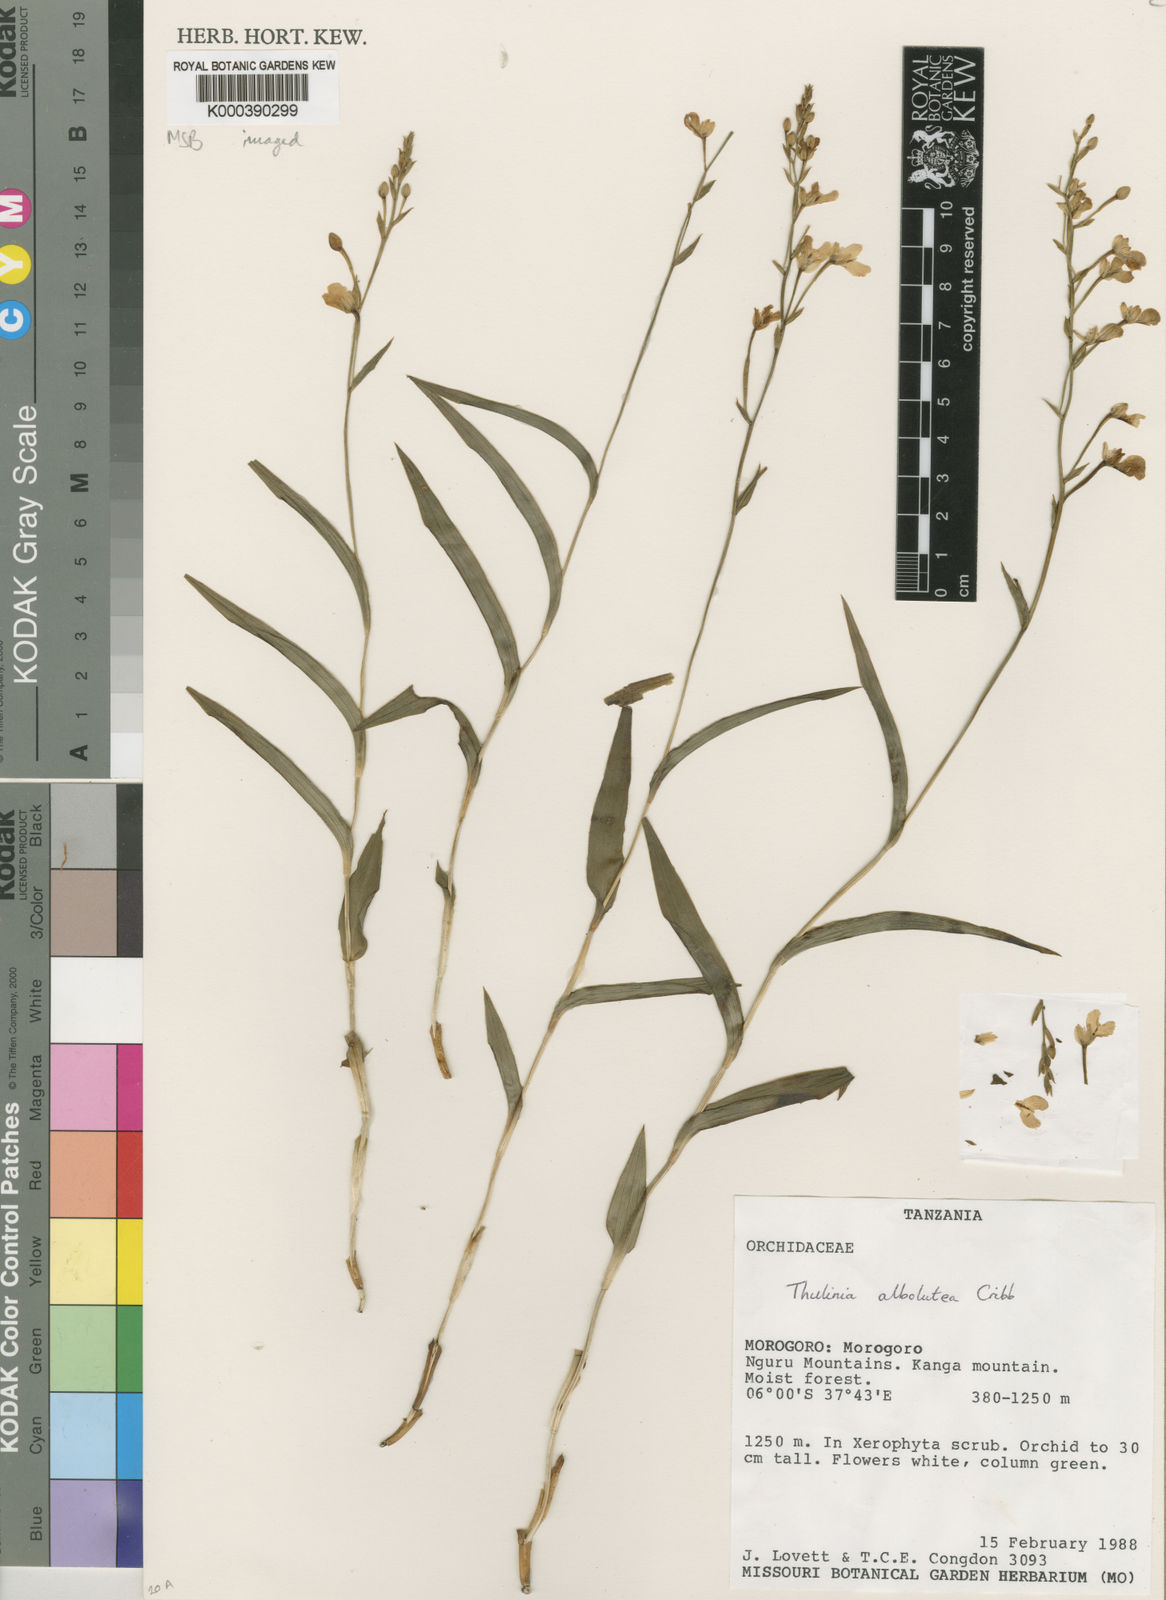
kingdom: Plantae
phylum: Tracheophyta
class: Liliopsida
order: Asparagales
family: Orchidaceae
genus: Thulinia
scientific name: Thulinia albolutea
